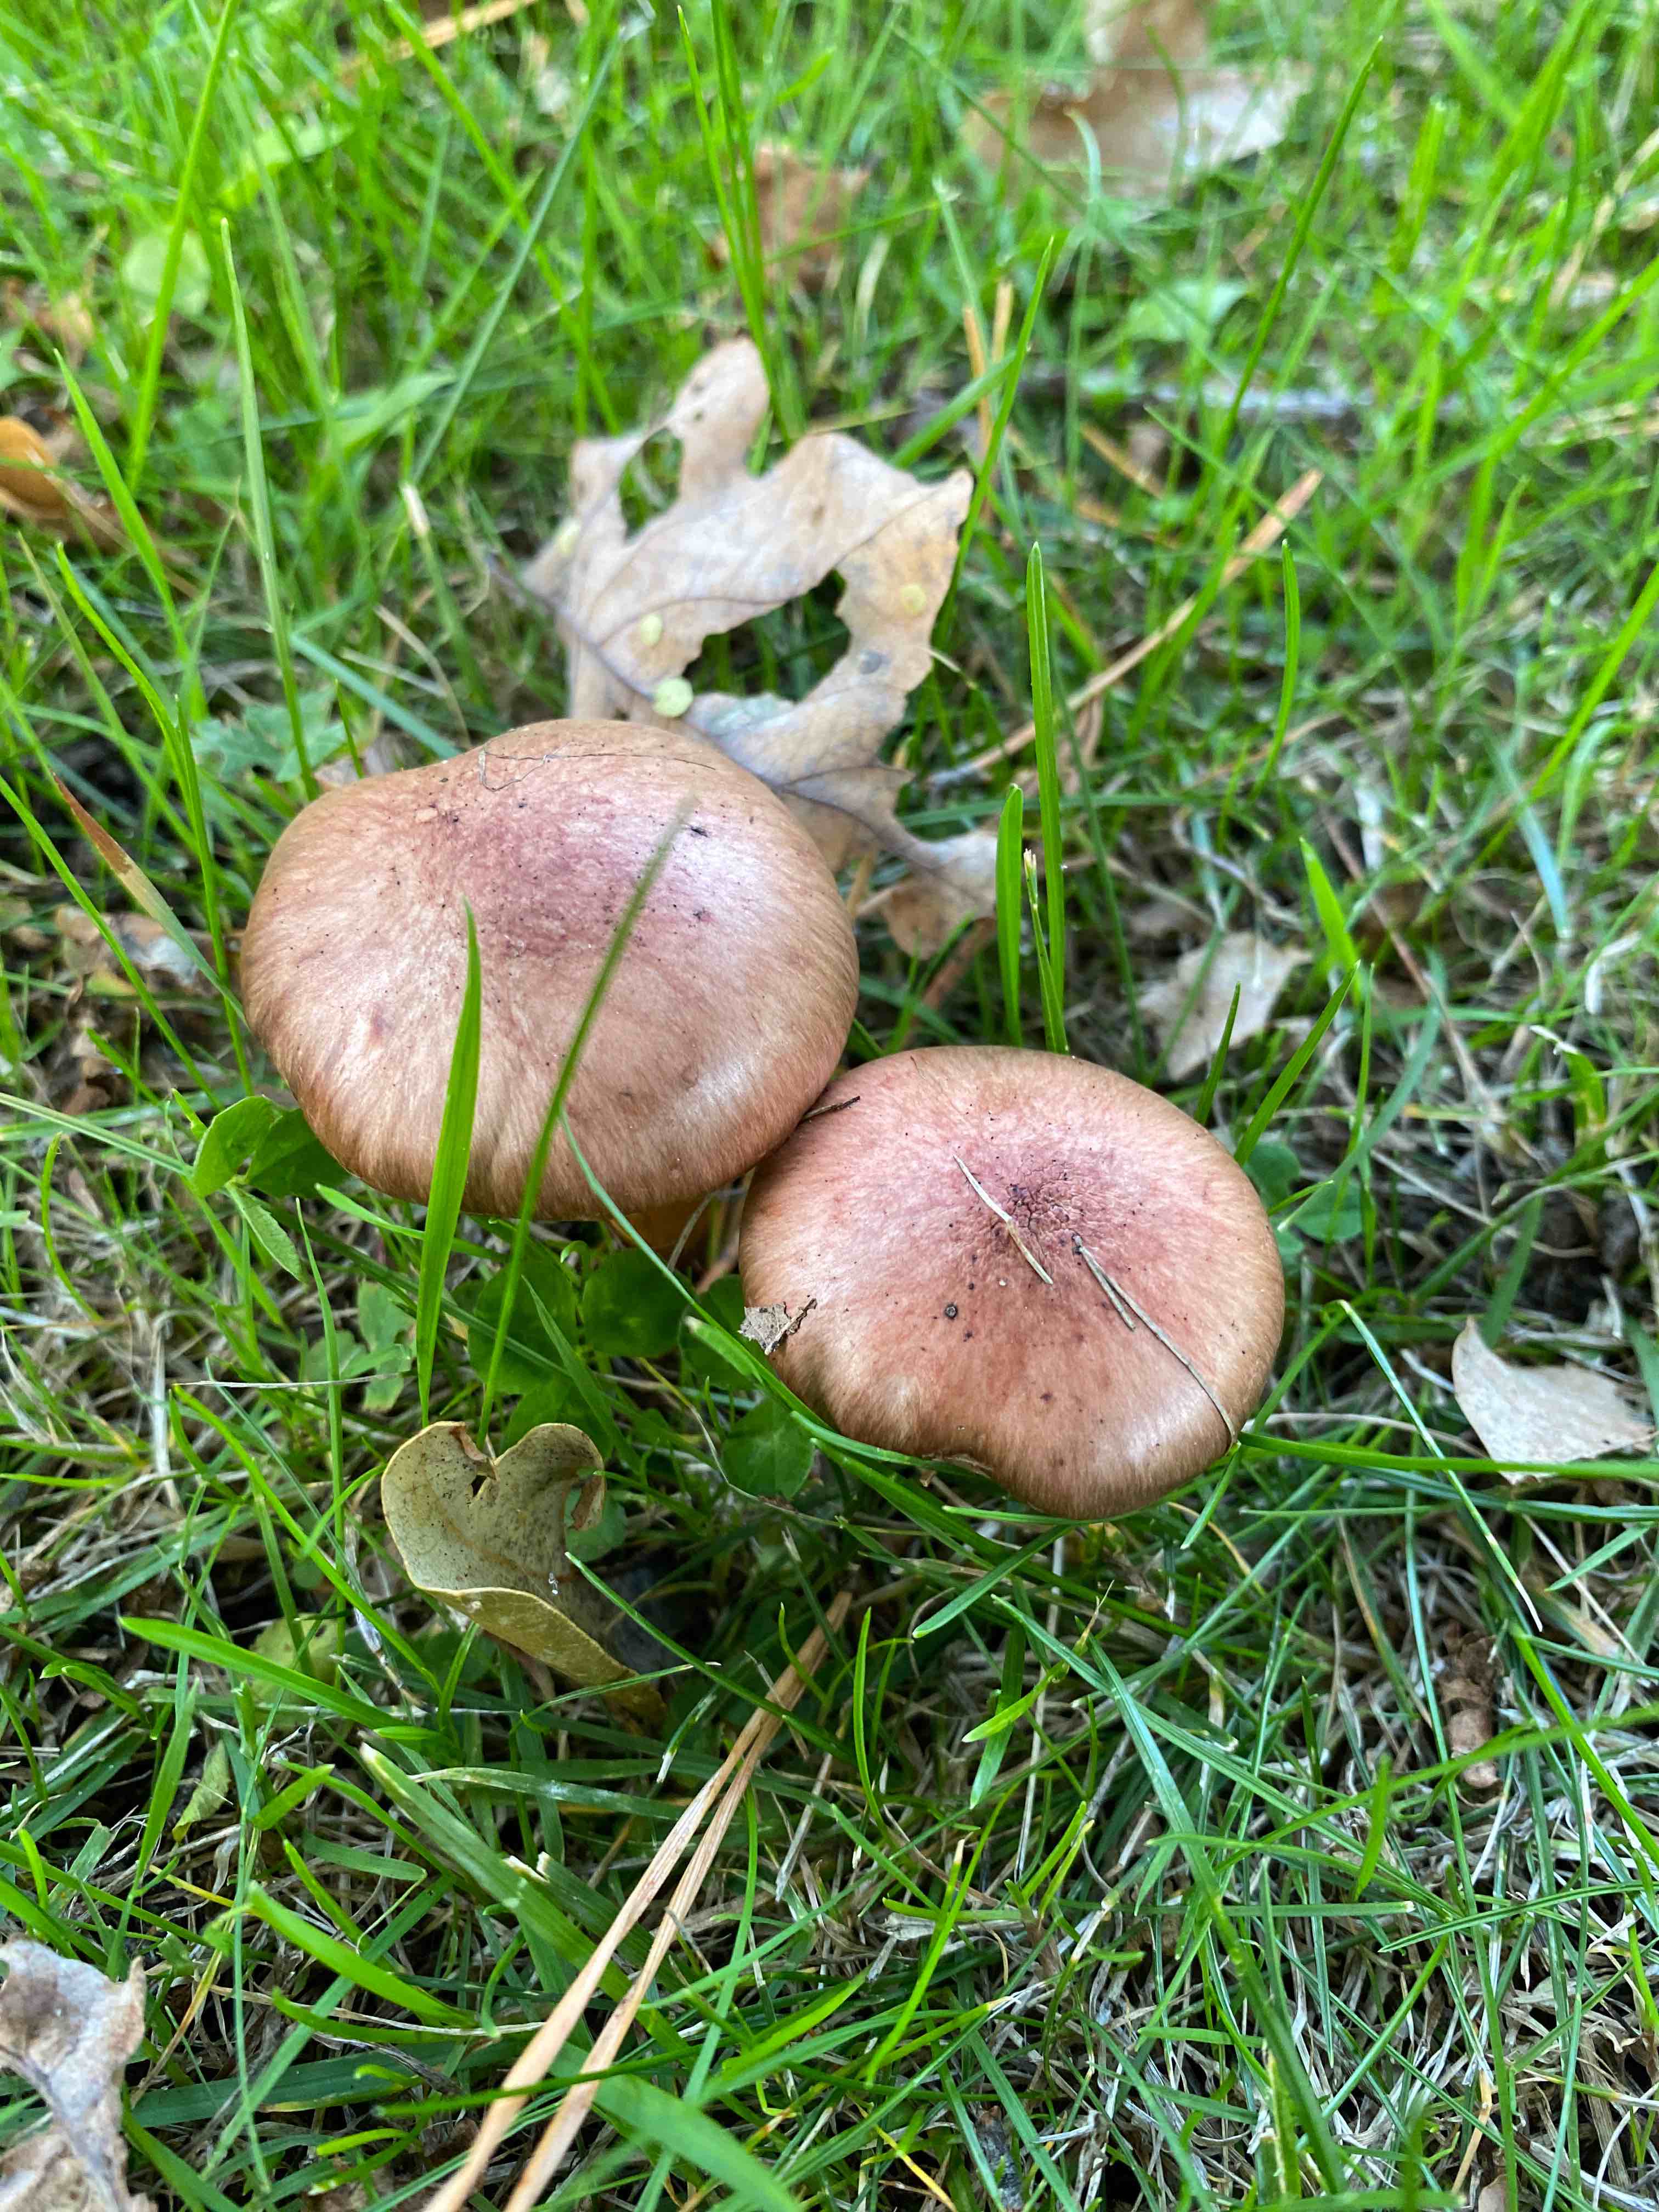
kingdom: Fungi
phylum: Basidiomycota
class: Agaricomycetes
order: Boletales
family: Gomphidiaceae
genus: Chroogomphus
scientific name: Chroogomphus rutilus
